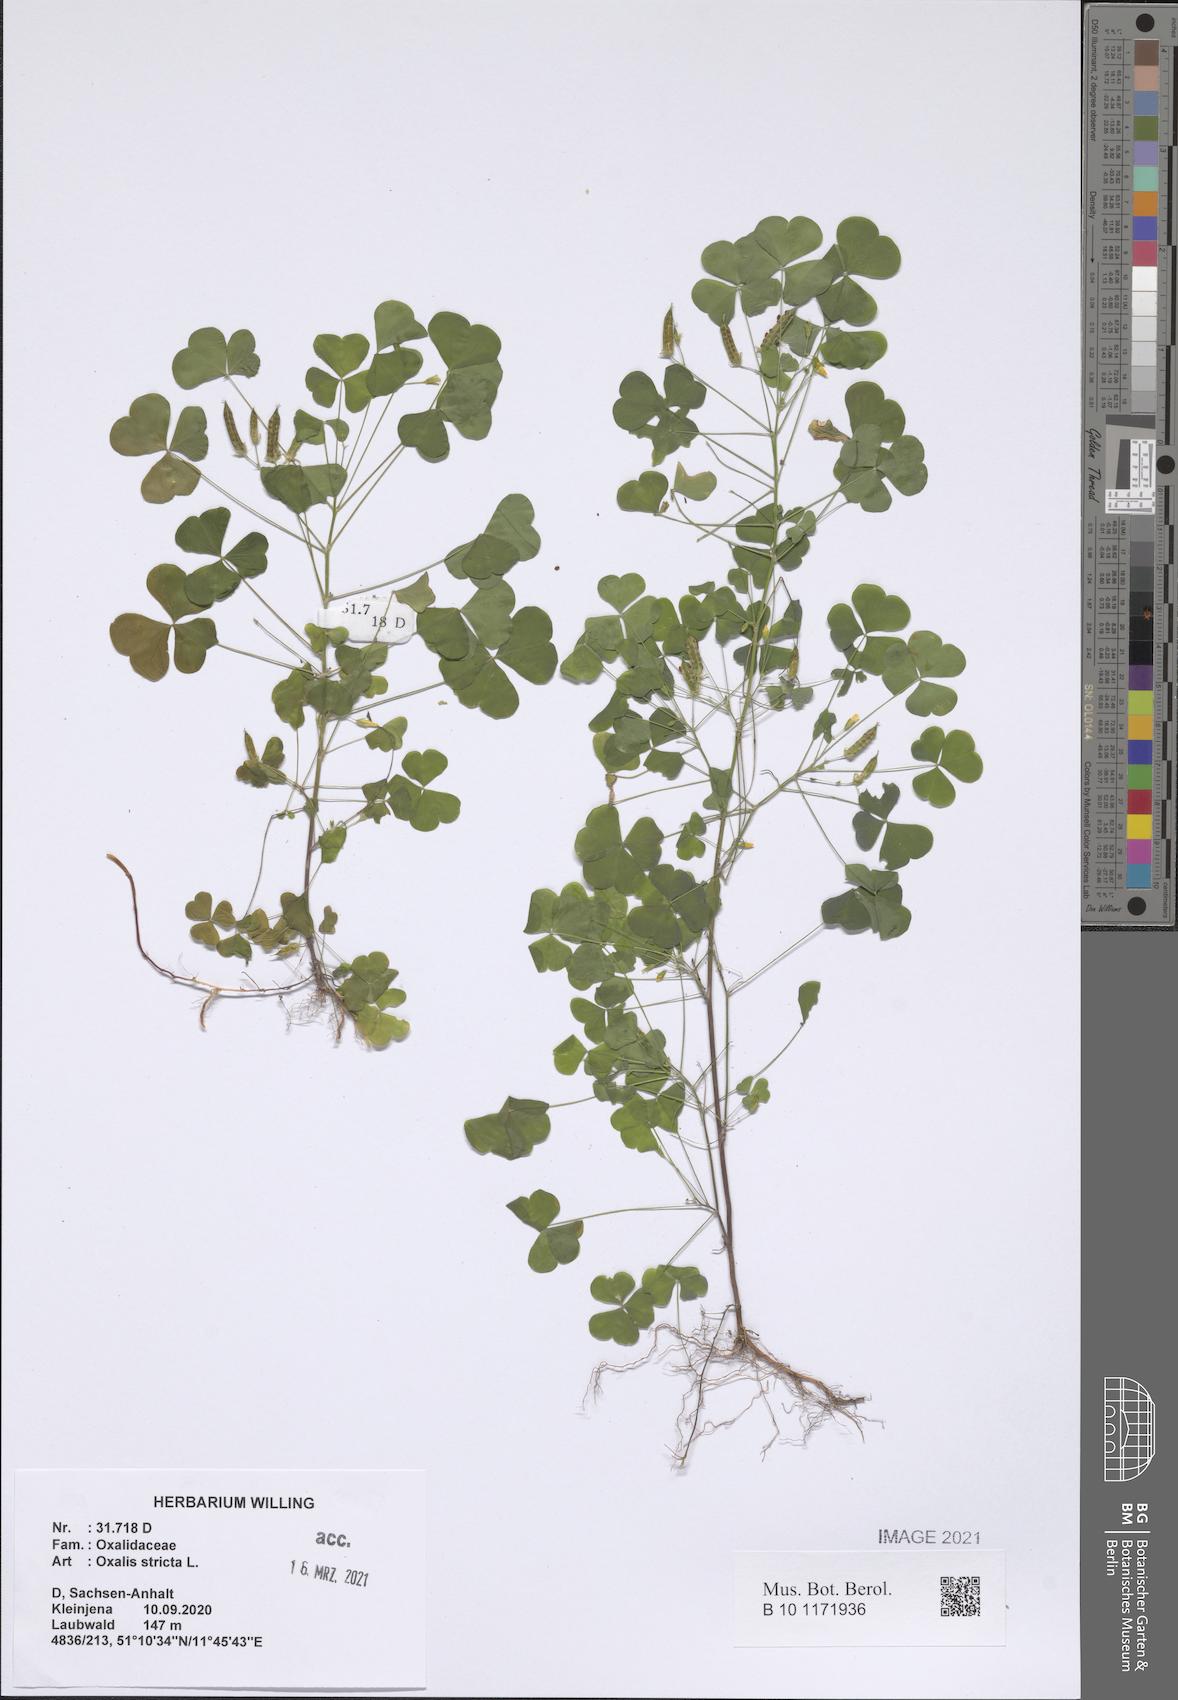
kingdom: Plantae
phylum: Tracheophyta
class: Magnoliopsida
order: Oxalidales
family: Oxalidaceae
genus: Oxalis
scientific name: Oxalis stricta
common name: Upright yellow-sorrel
